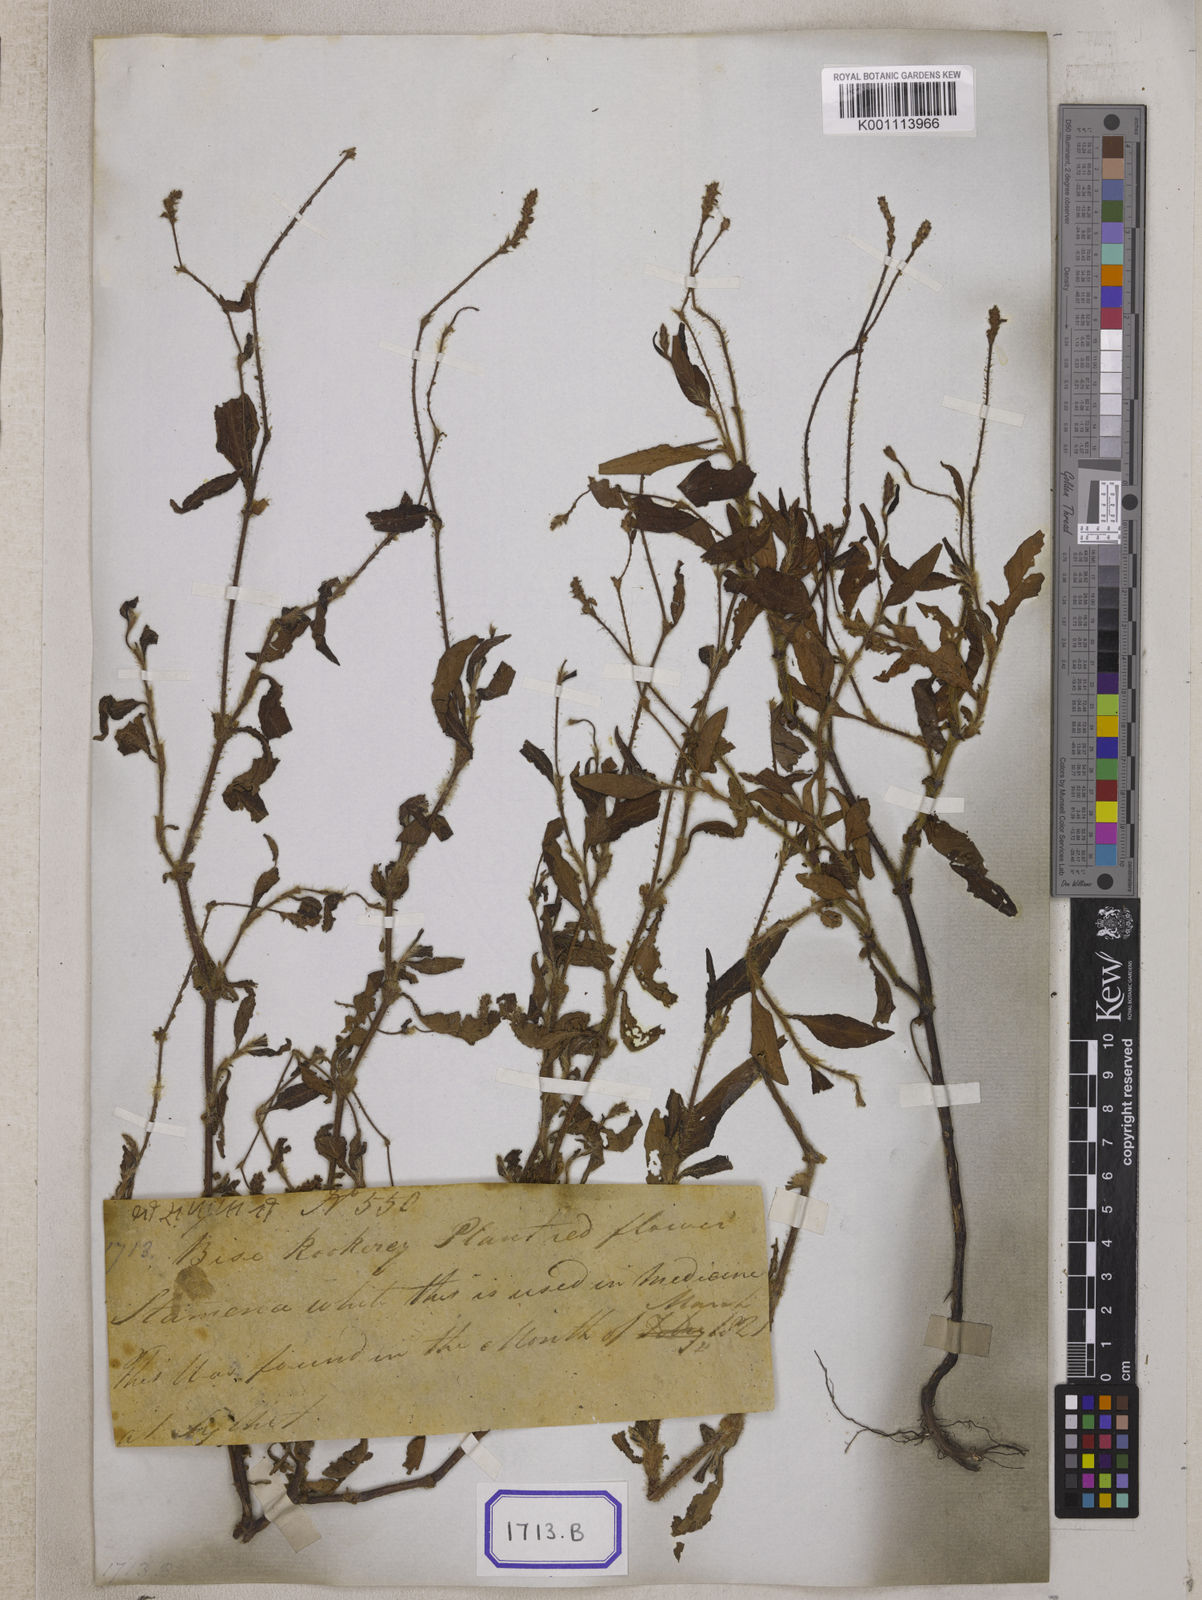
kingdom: Plantae
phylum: Tracheophyta
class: Magnoliopsida
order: Caryophyllales
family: Polygonaceae
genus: Polygonum
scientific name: Polygonum
